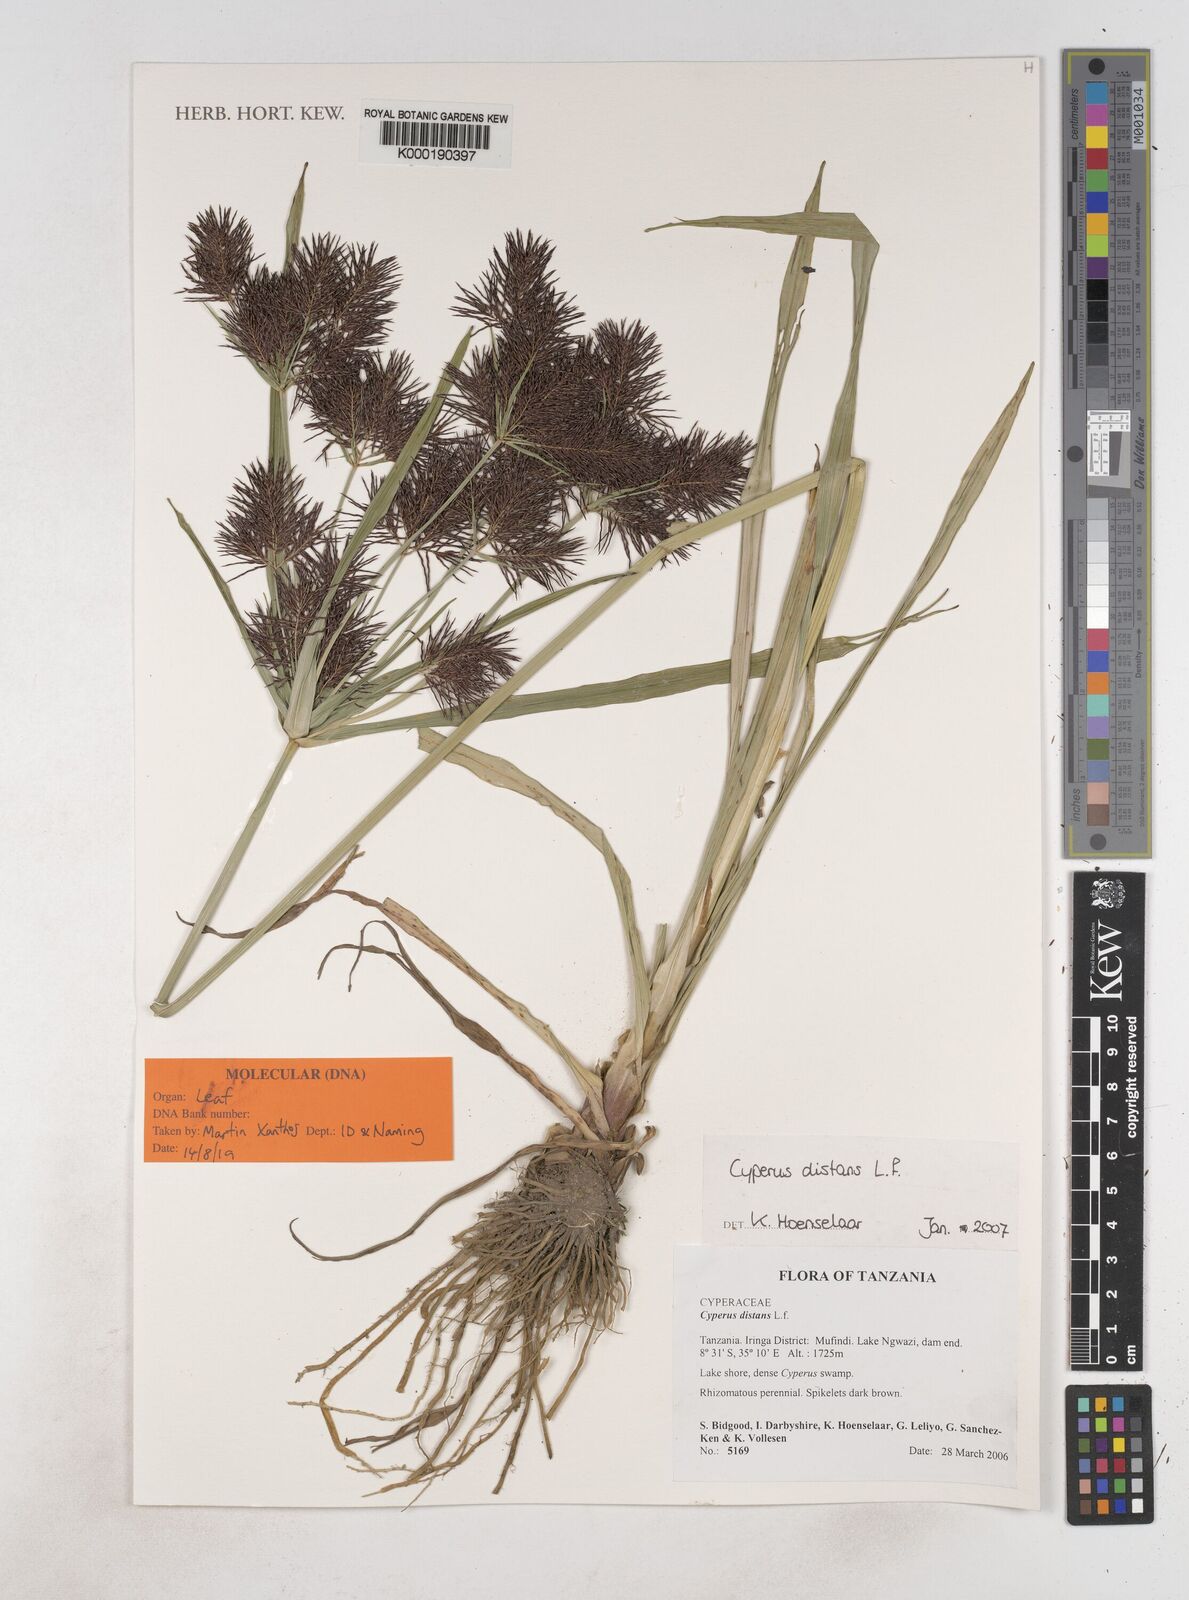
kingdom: Plantae
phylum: Tracheophyta
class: Liliopsida
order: Poales
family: Cyperaceae
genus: Cyperus
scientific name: Cyperus distans
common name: Slender cyperus
